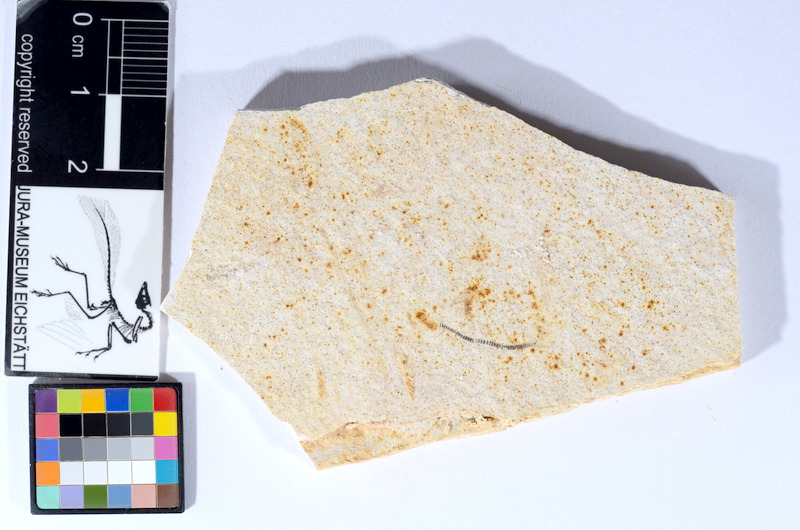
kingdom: Animalia
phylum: Chordata
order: Salmoniformes
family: Orthogonikleithridae
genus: Orthogonikleithrus
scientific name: Orthogonikleithrus hoelli
